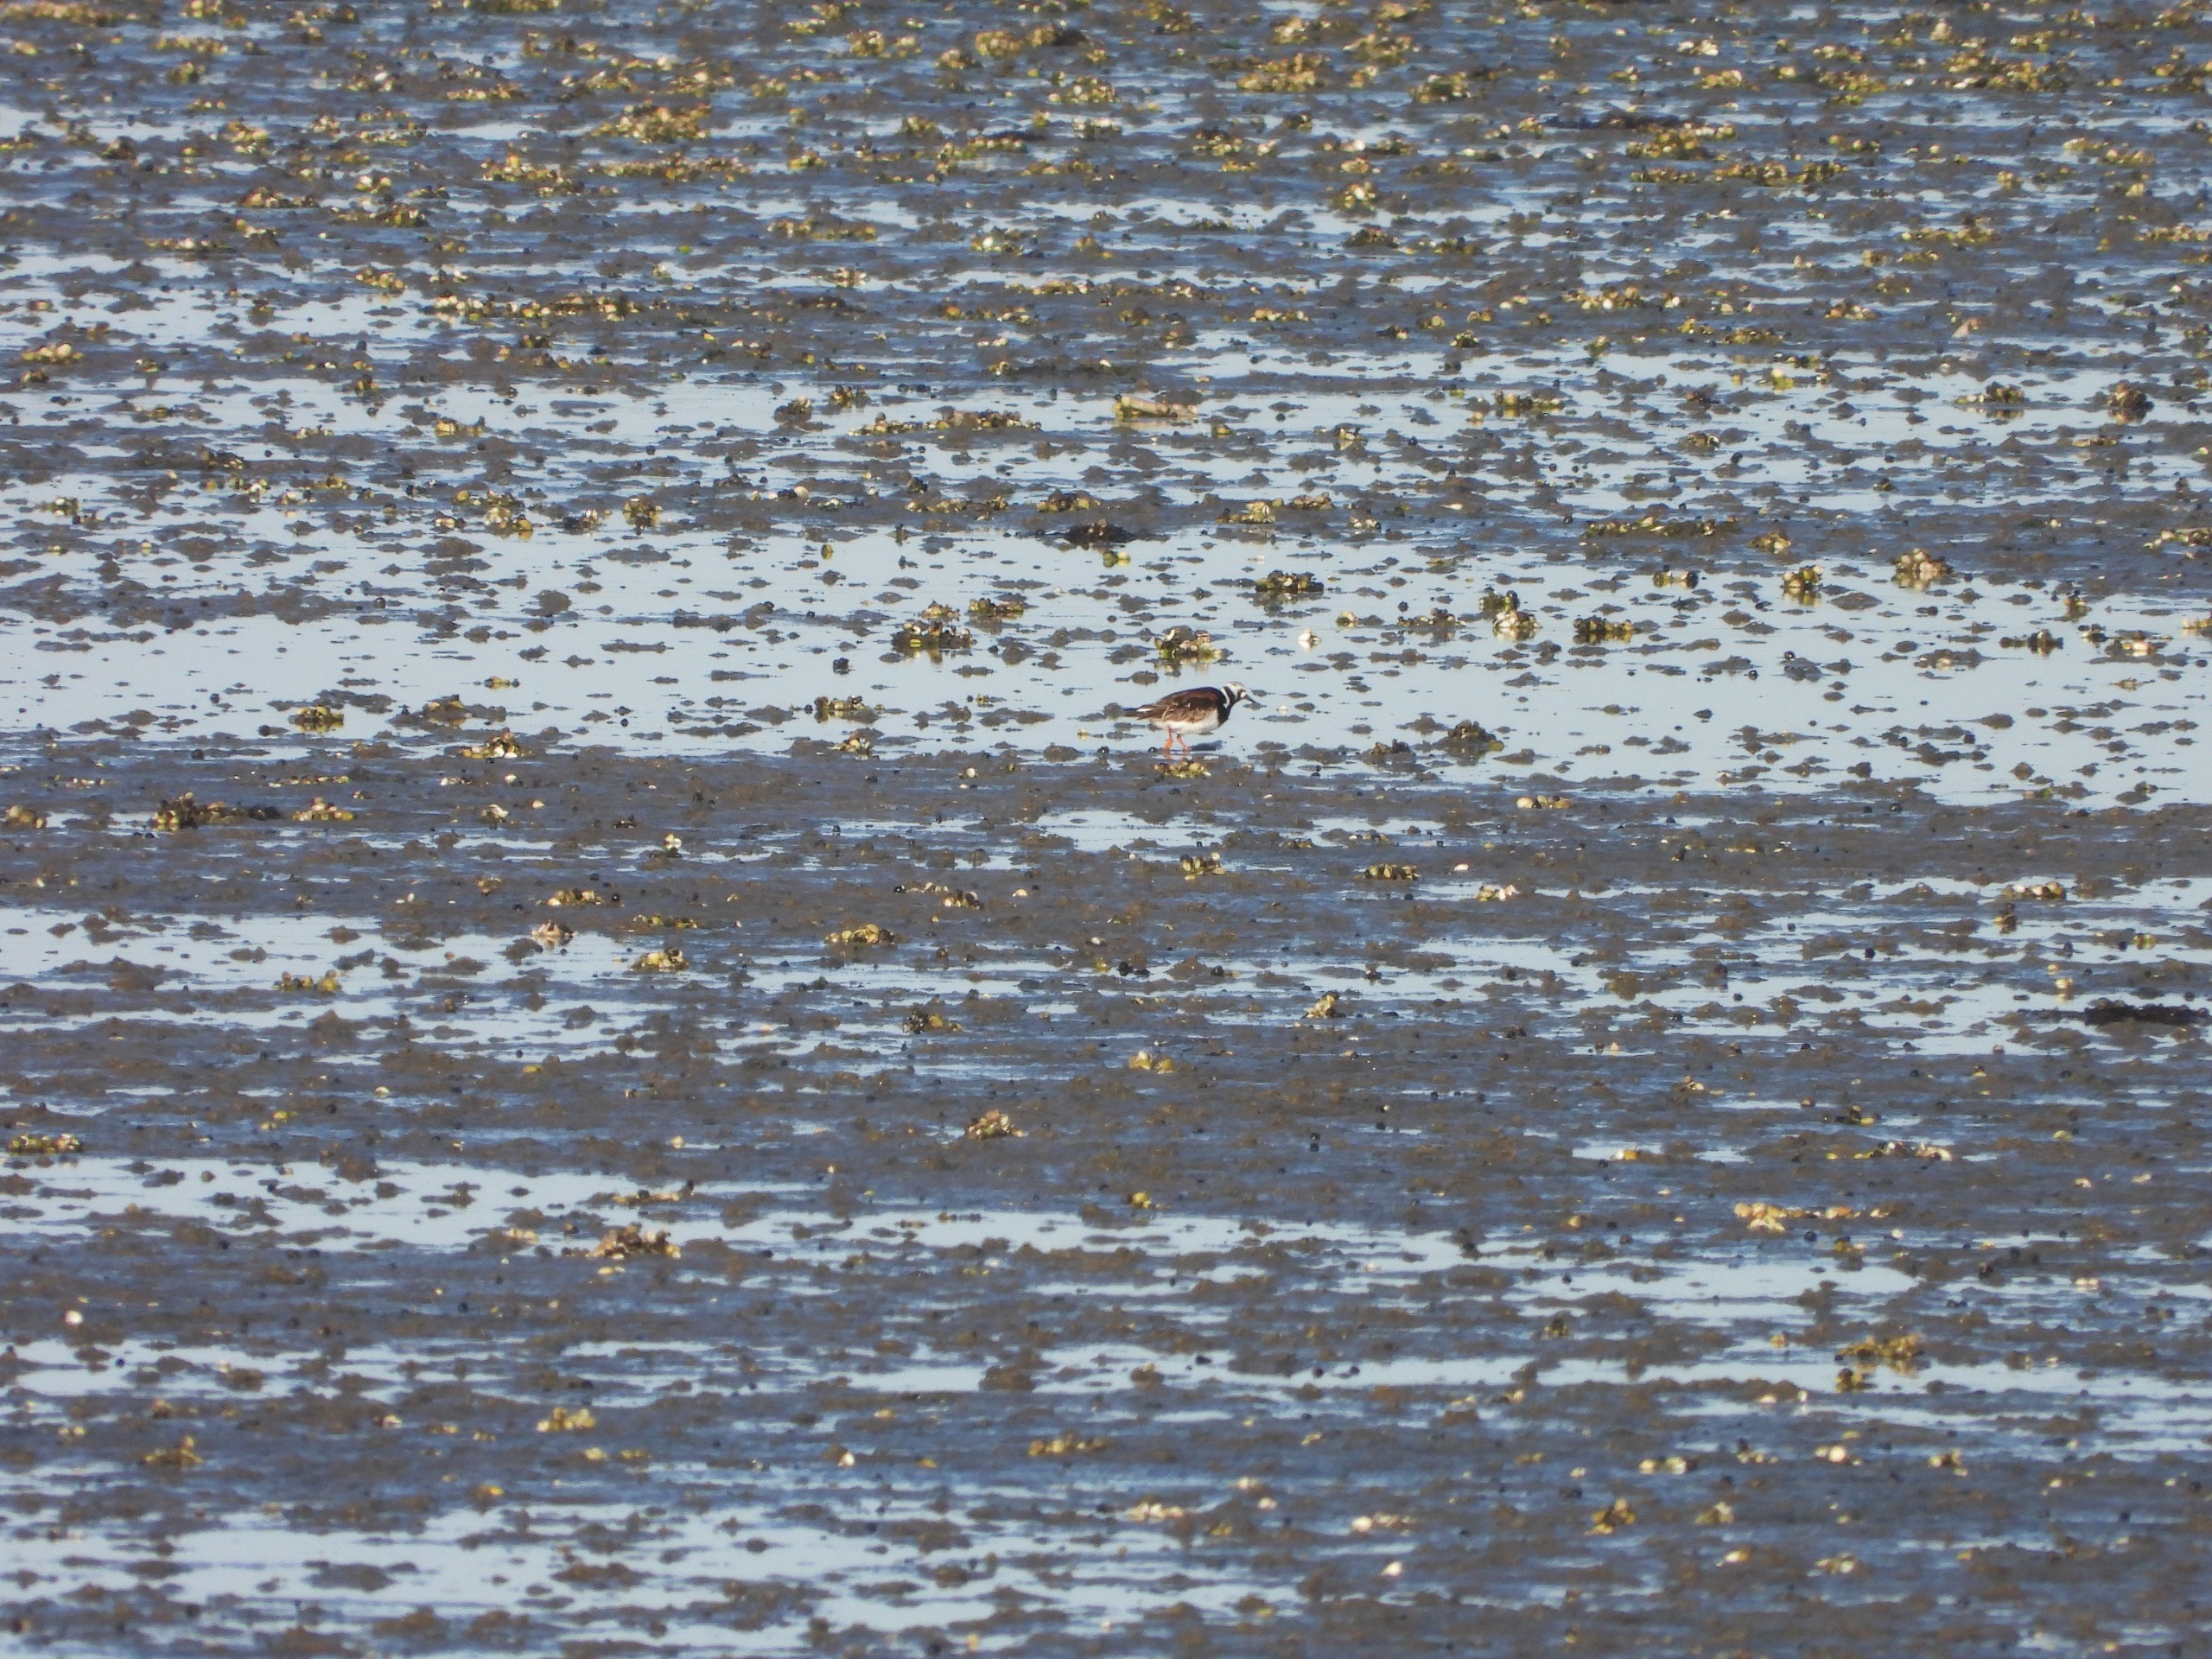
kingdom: Animalia
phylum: Chordata
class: Aves
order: Charadriiformes
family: Scolopacidae
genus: Arenaria
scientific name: Arenaria interpres
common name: Stenvender
